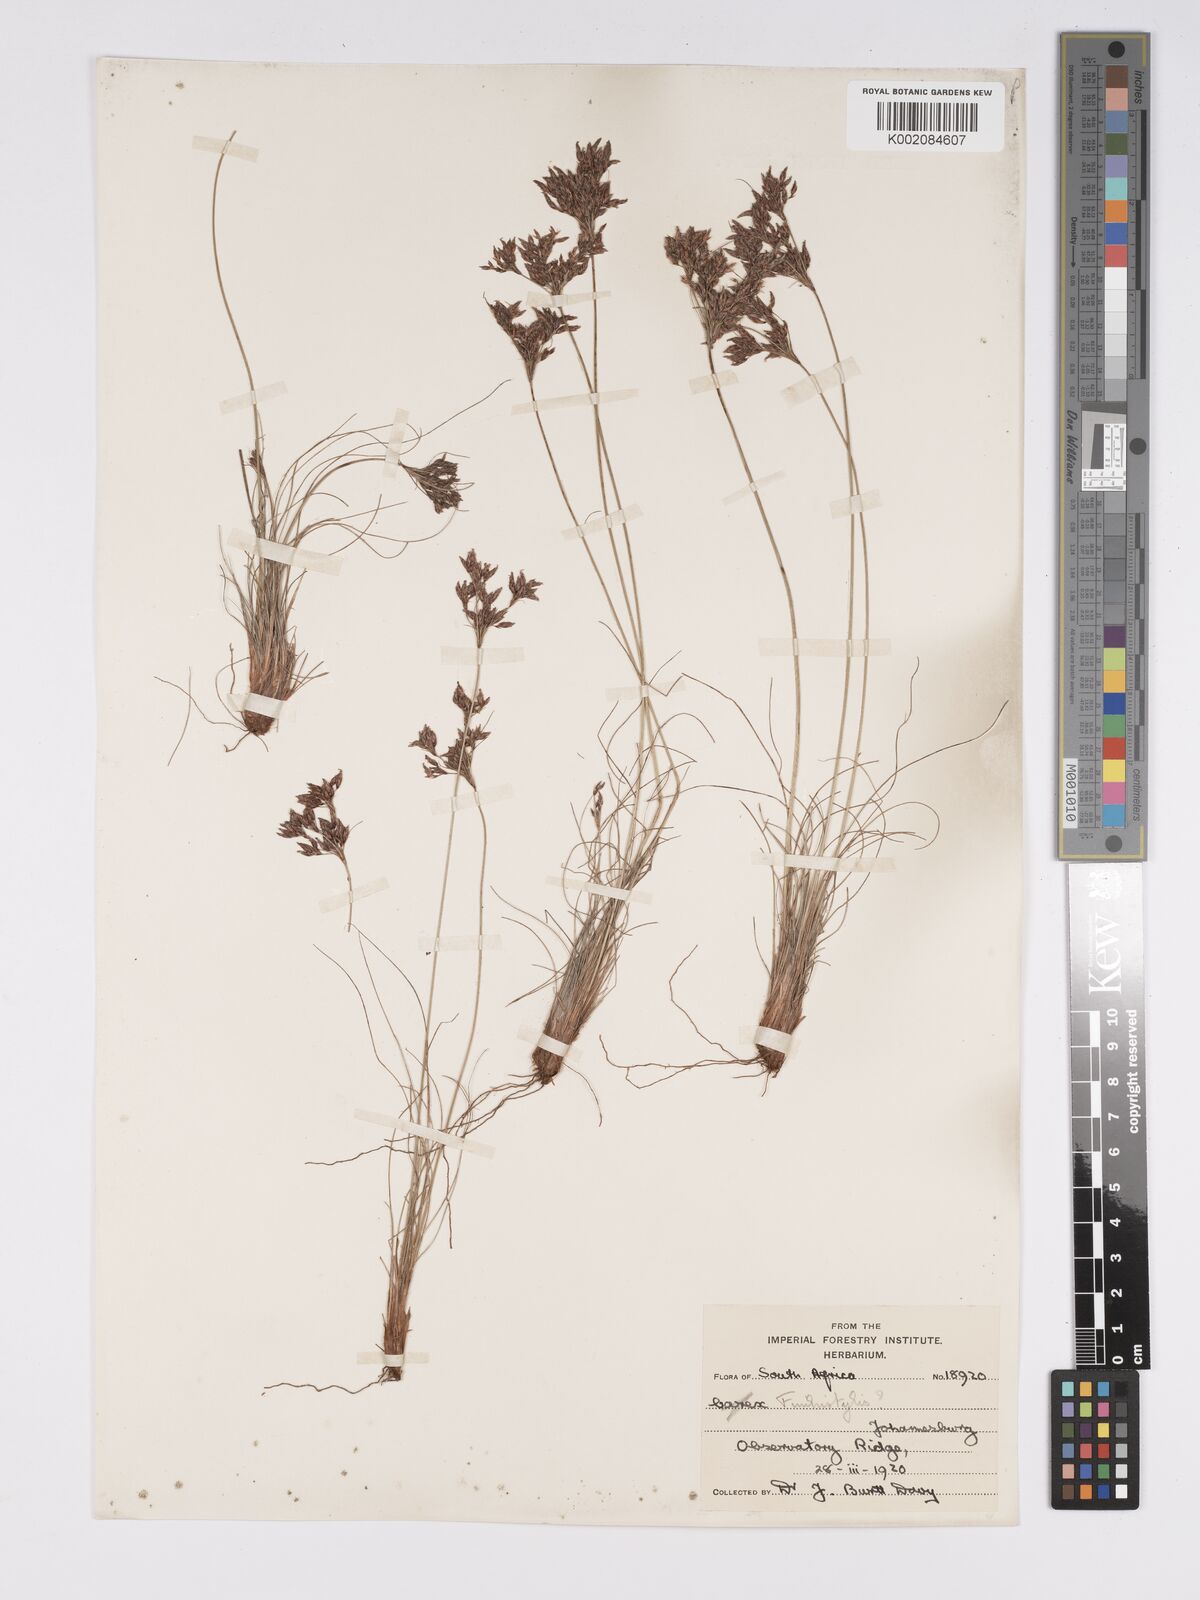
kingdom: Plantae
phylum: Tracheophyta
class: Liliopsida
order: Poales
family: Cyperaceae
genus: Bulbostylis
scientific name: Bulbostylis burchellii
